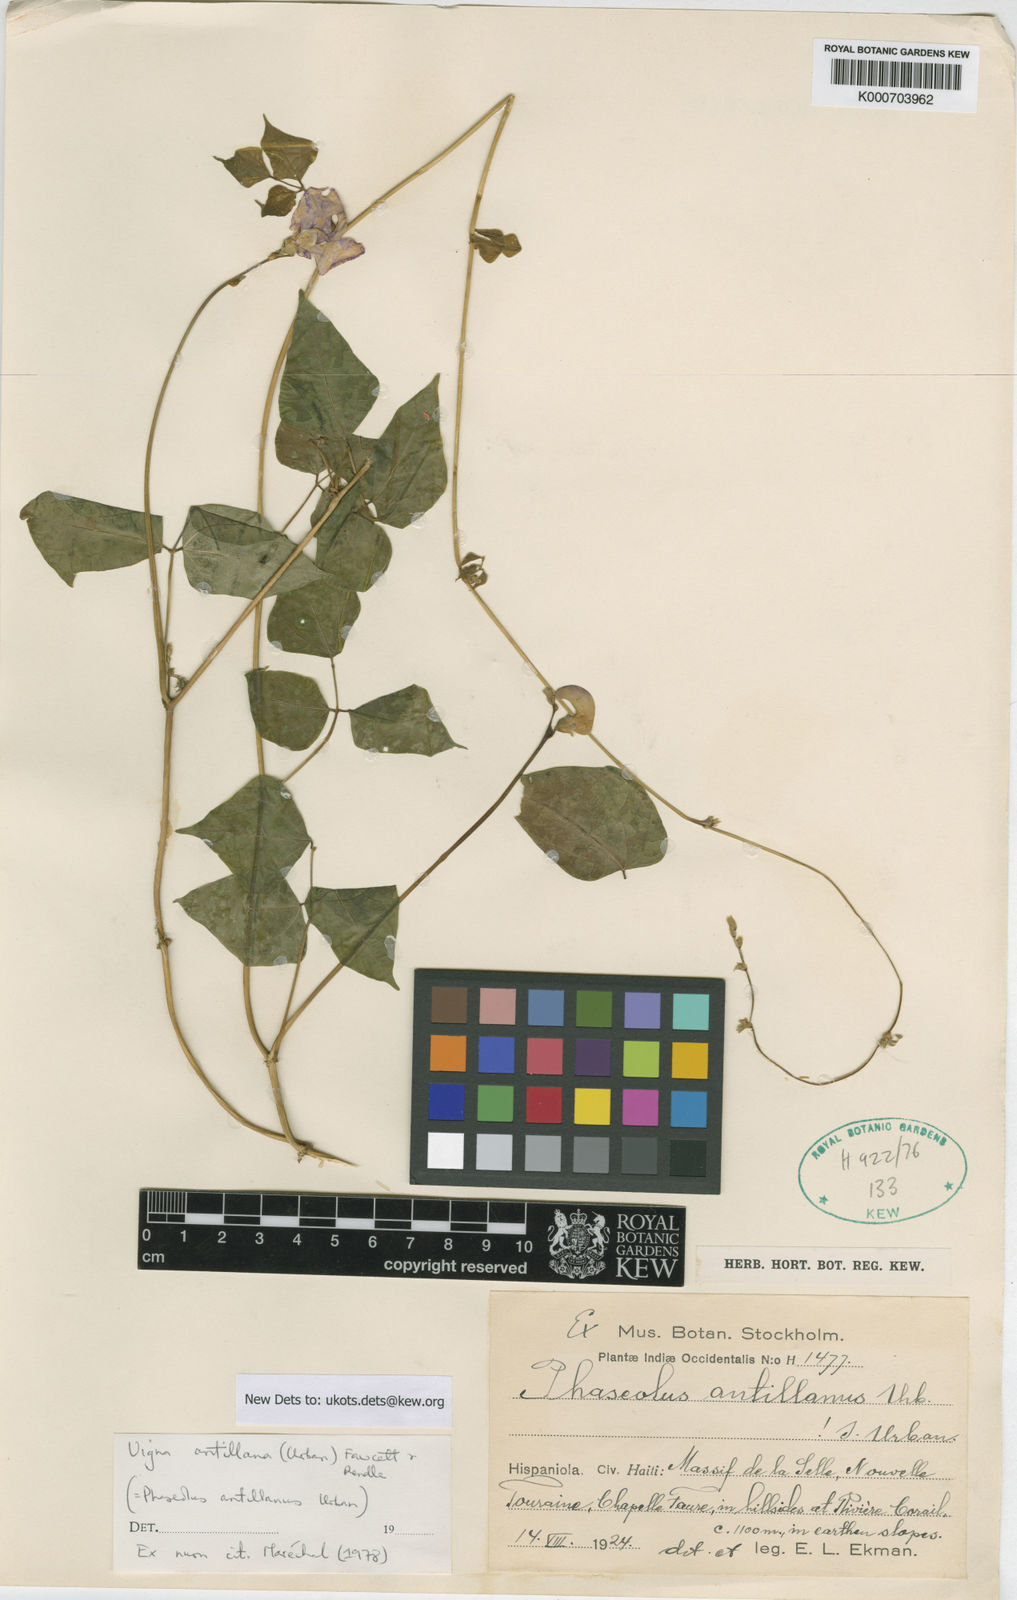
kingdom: Plantae
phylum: Tracheophyta
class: Magnoliopsida
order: Fabales
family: Fabaceae
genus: Sigmoidotropis
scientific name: Sigmoidotropis antillana
